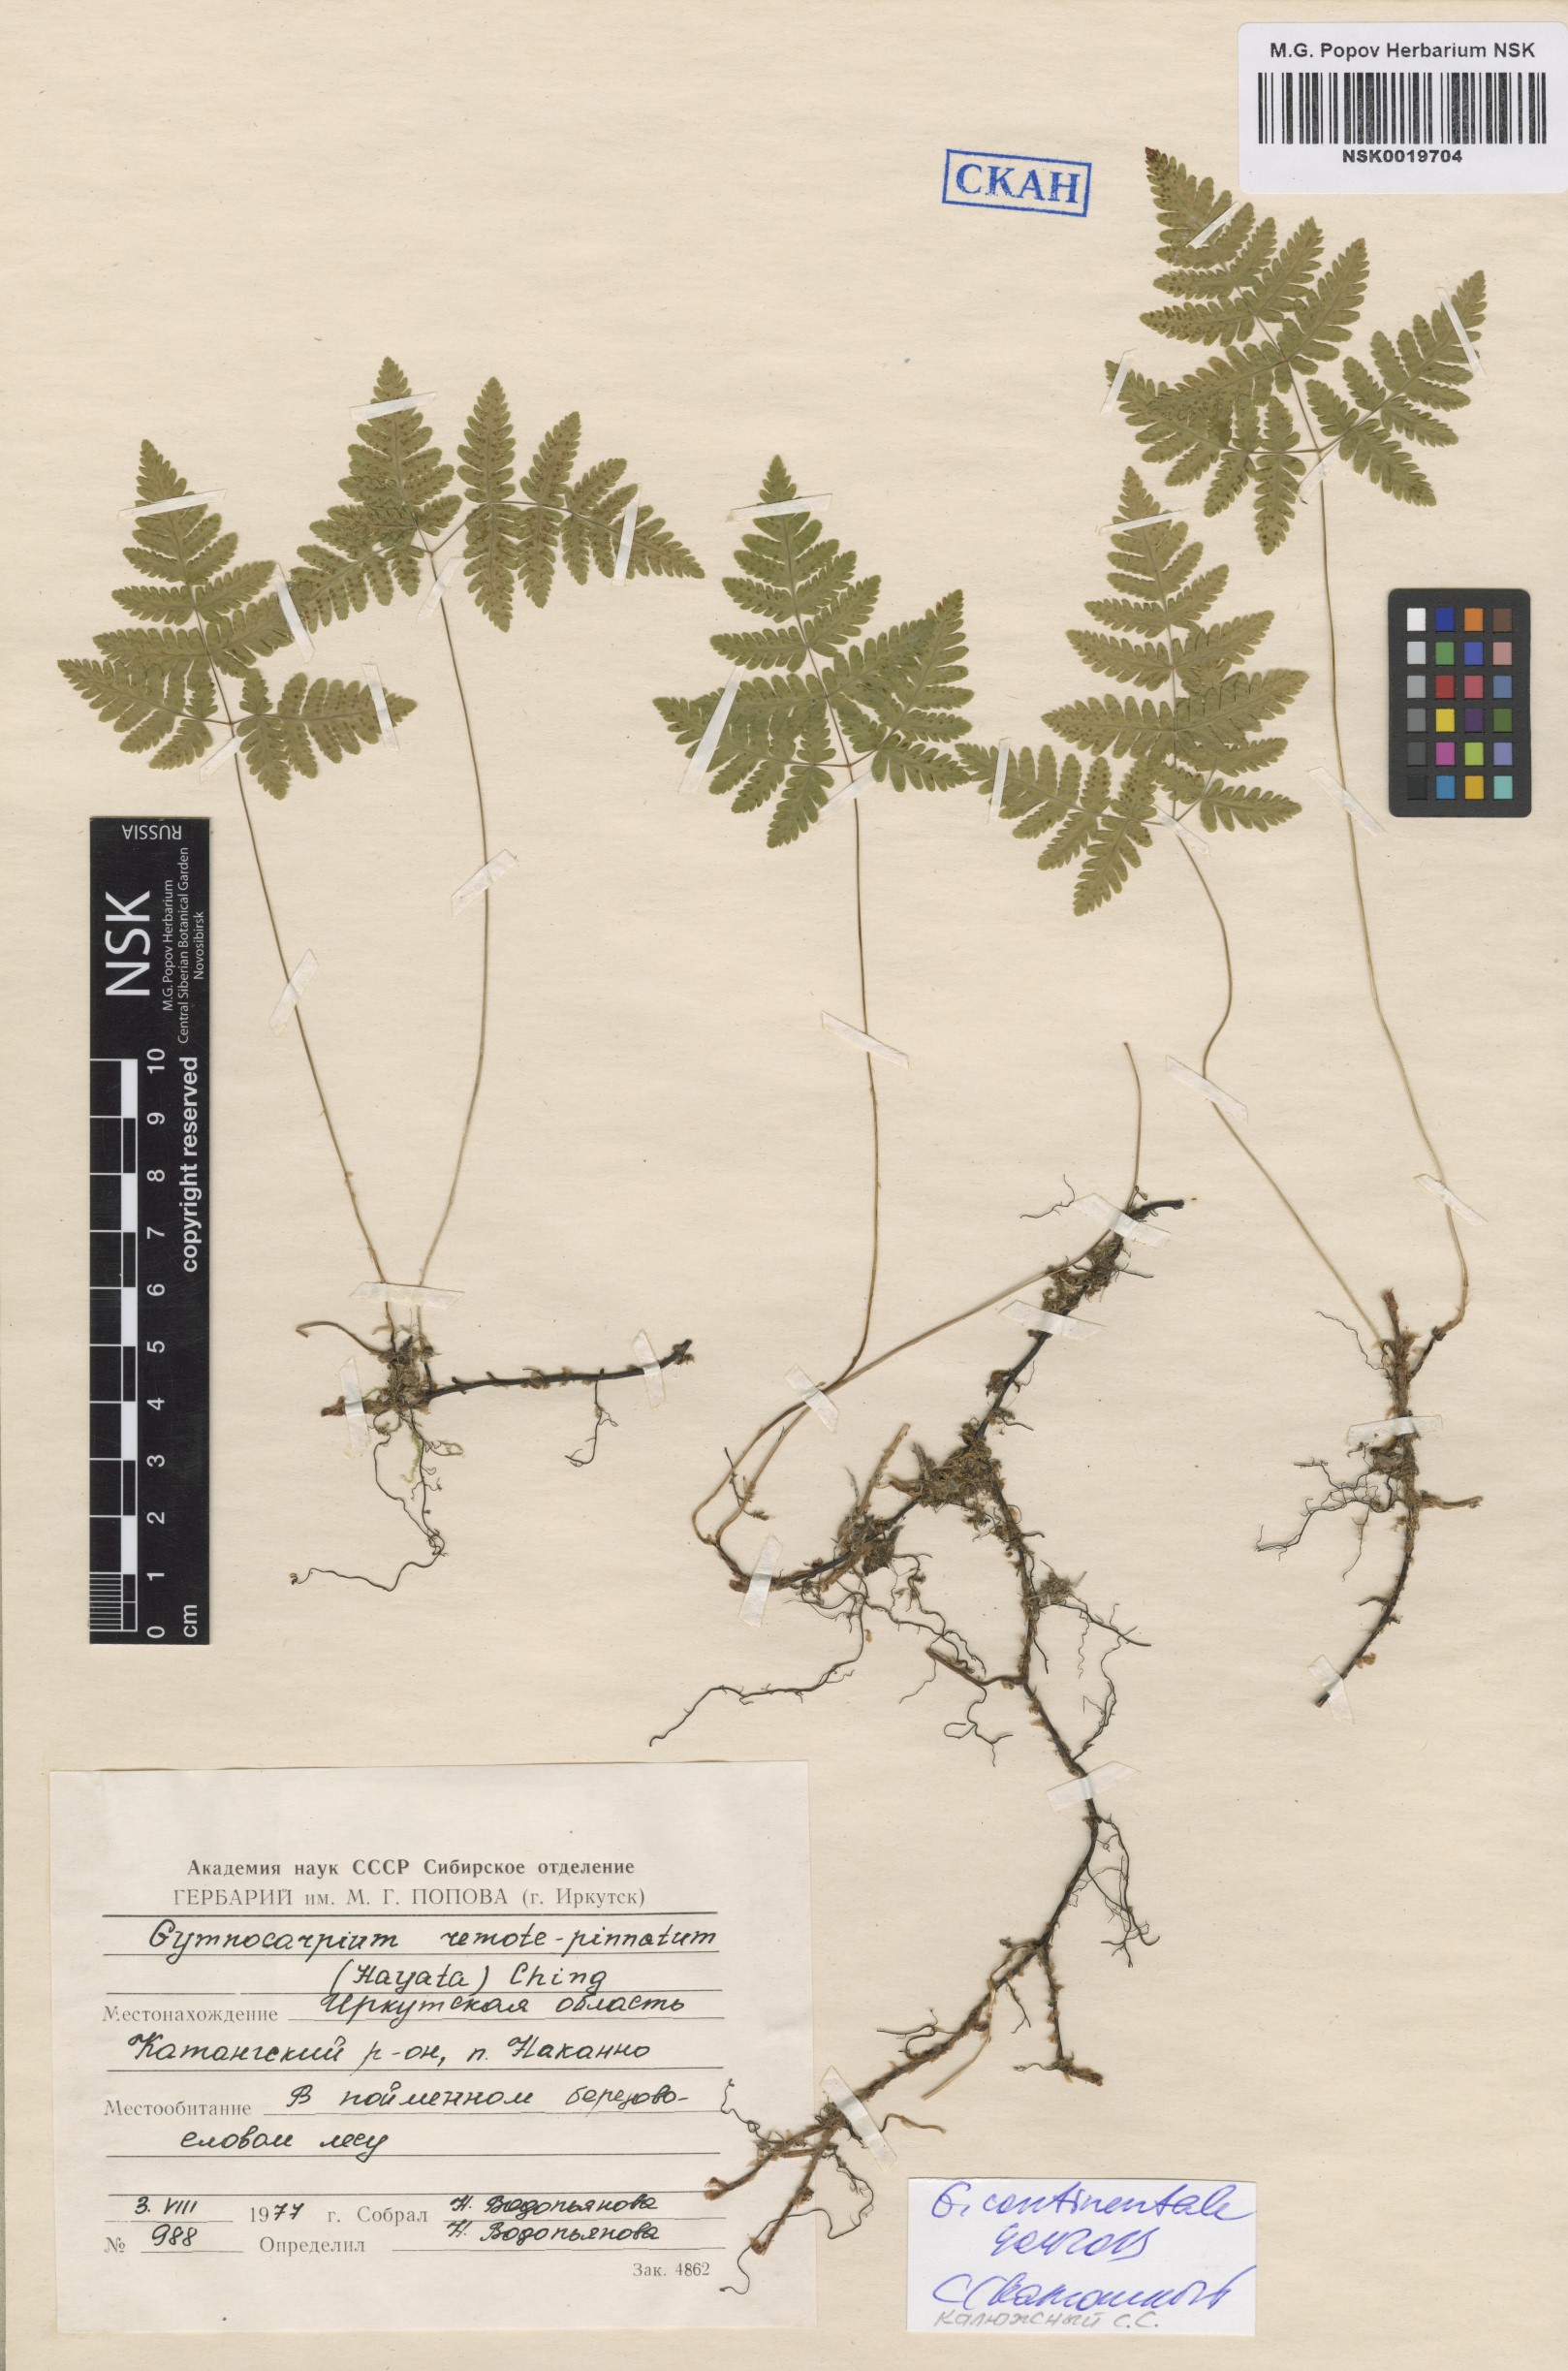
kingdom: Plantae
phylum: Tracheophyta
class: Polypodiopsida
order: Polypodiales
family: Cystopteridaceae
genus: Gymnocarpium
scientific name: Gymnocarpium continentale
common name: Asian oak fern
